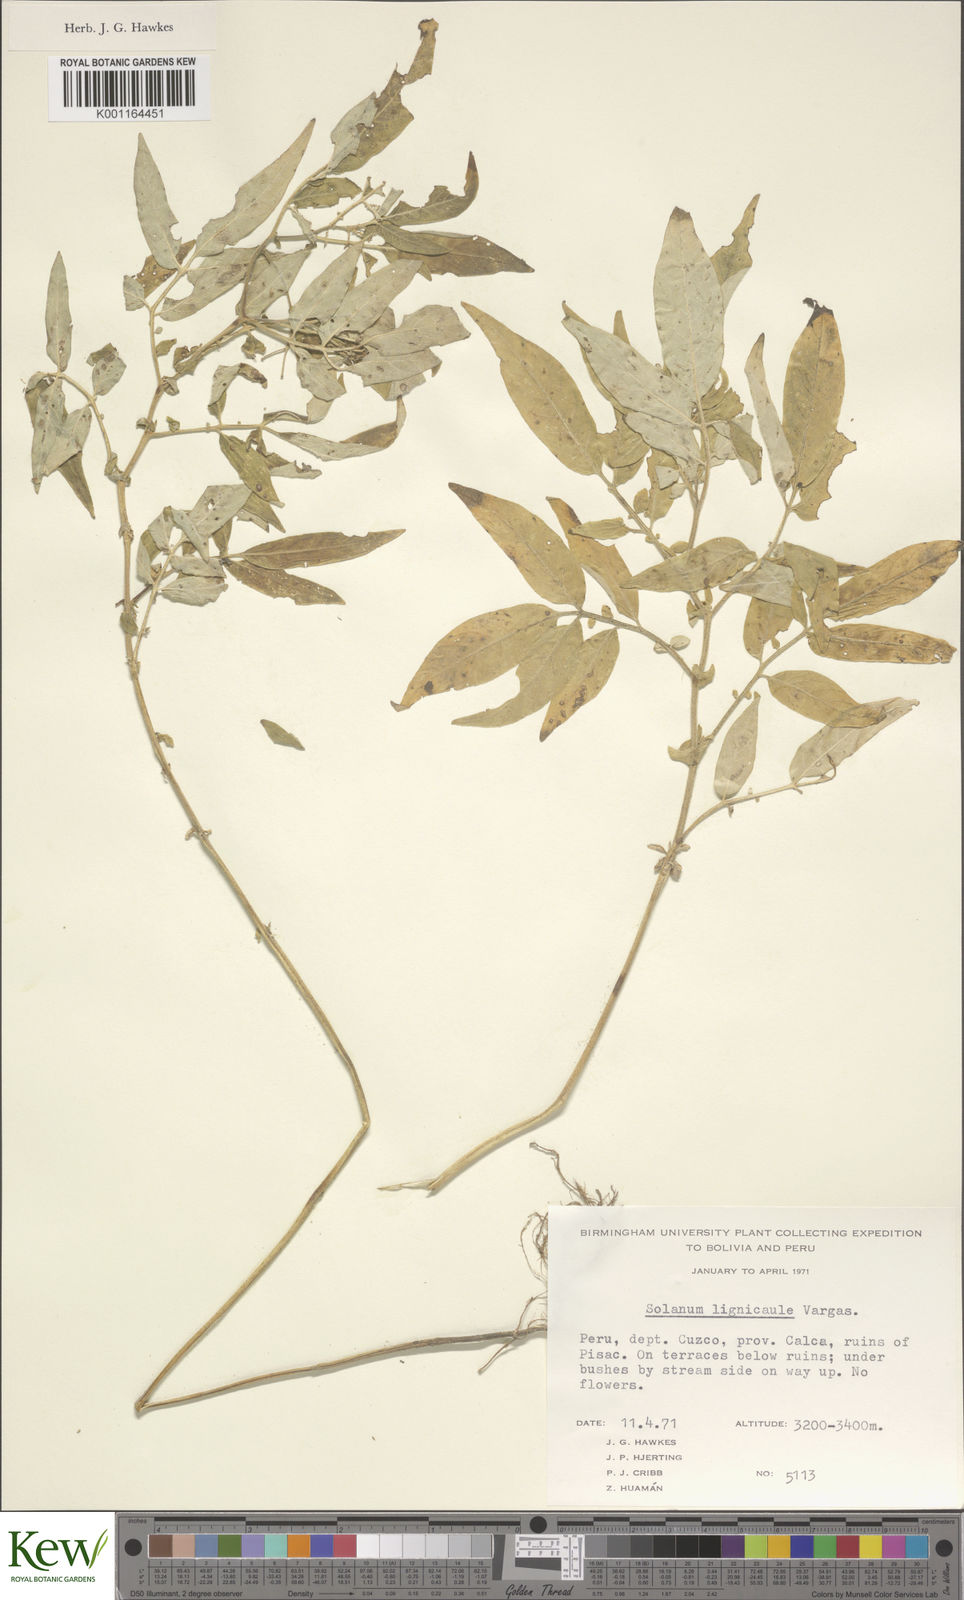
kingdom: Plantae
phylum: Tracheophyta
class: Magnoliopsida
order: Solanales
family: Solanaceae
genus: Solanum
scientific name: Solanum lignicaule
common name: Fox potato
